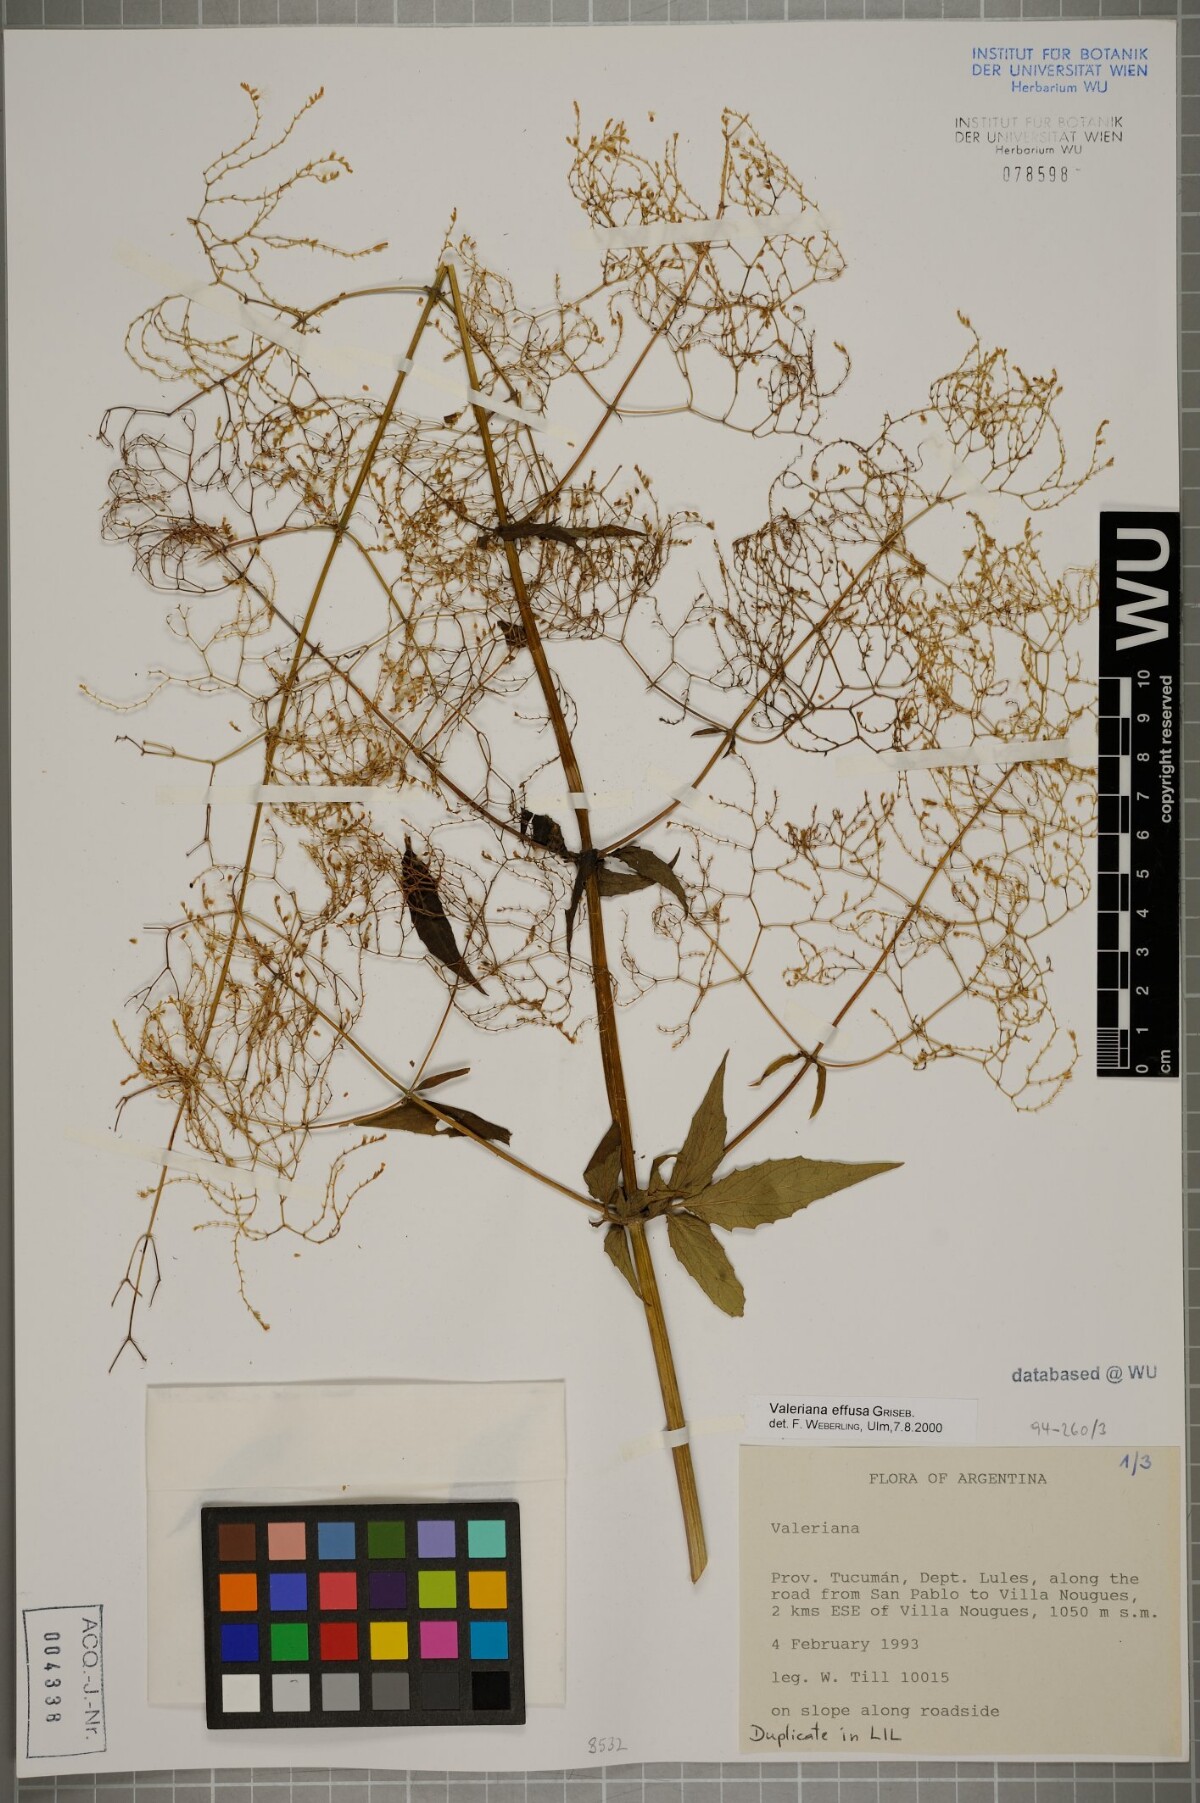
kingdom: Plantae
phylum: Tracheophyta
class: Magnoliopsida
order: Dipsacales
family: Caprifoliaceae
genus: Valeriana
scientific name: Valeriana effusa
